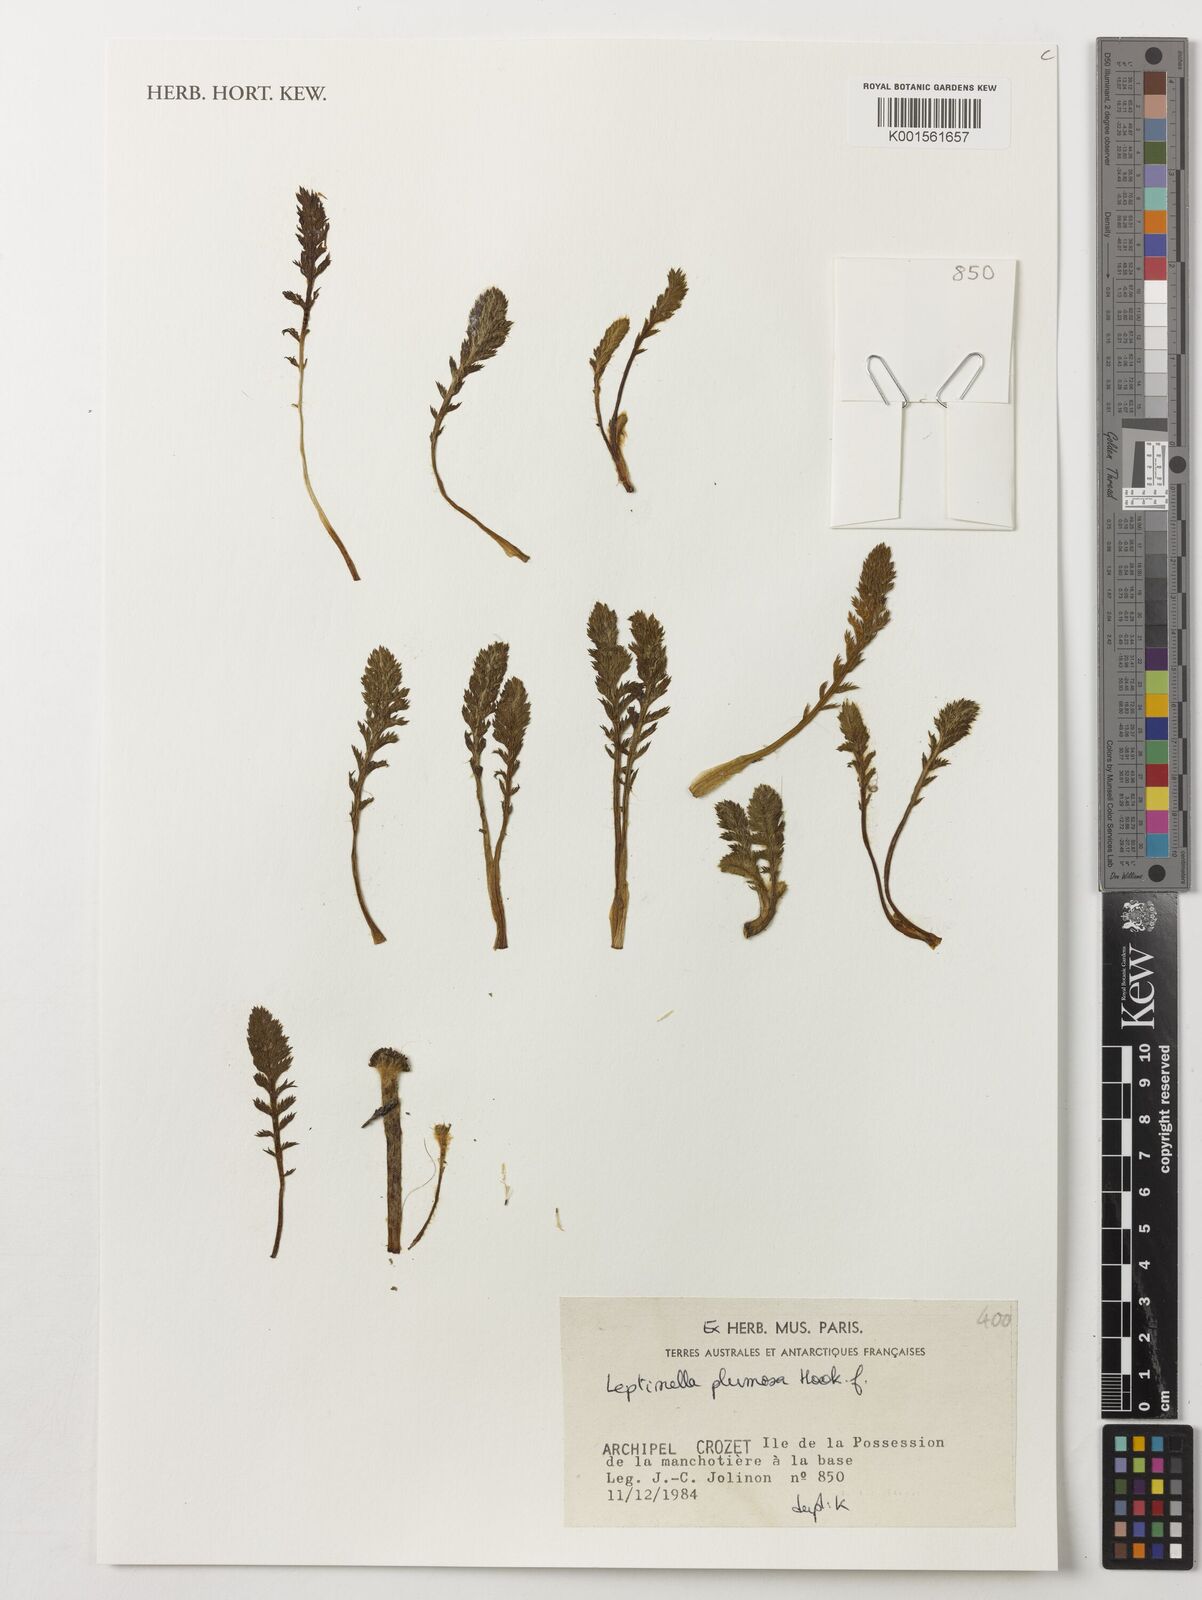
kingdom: Plantae
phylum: Tracheophyta
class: Magnoliopsida
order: Asterales
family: Asteraceae
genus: Leptinella
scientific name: Leptinella plumosa
